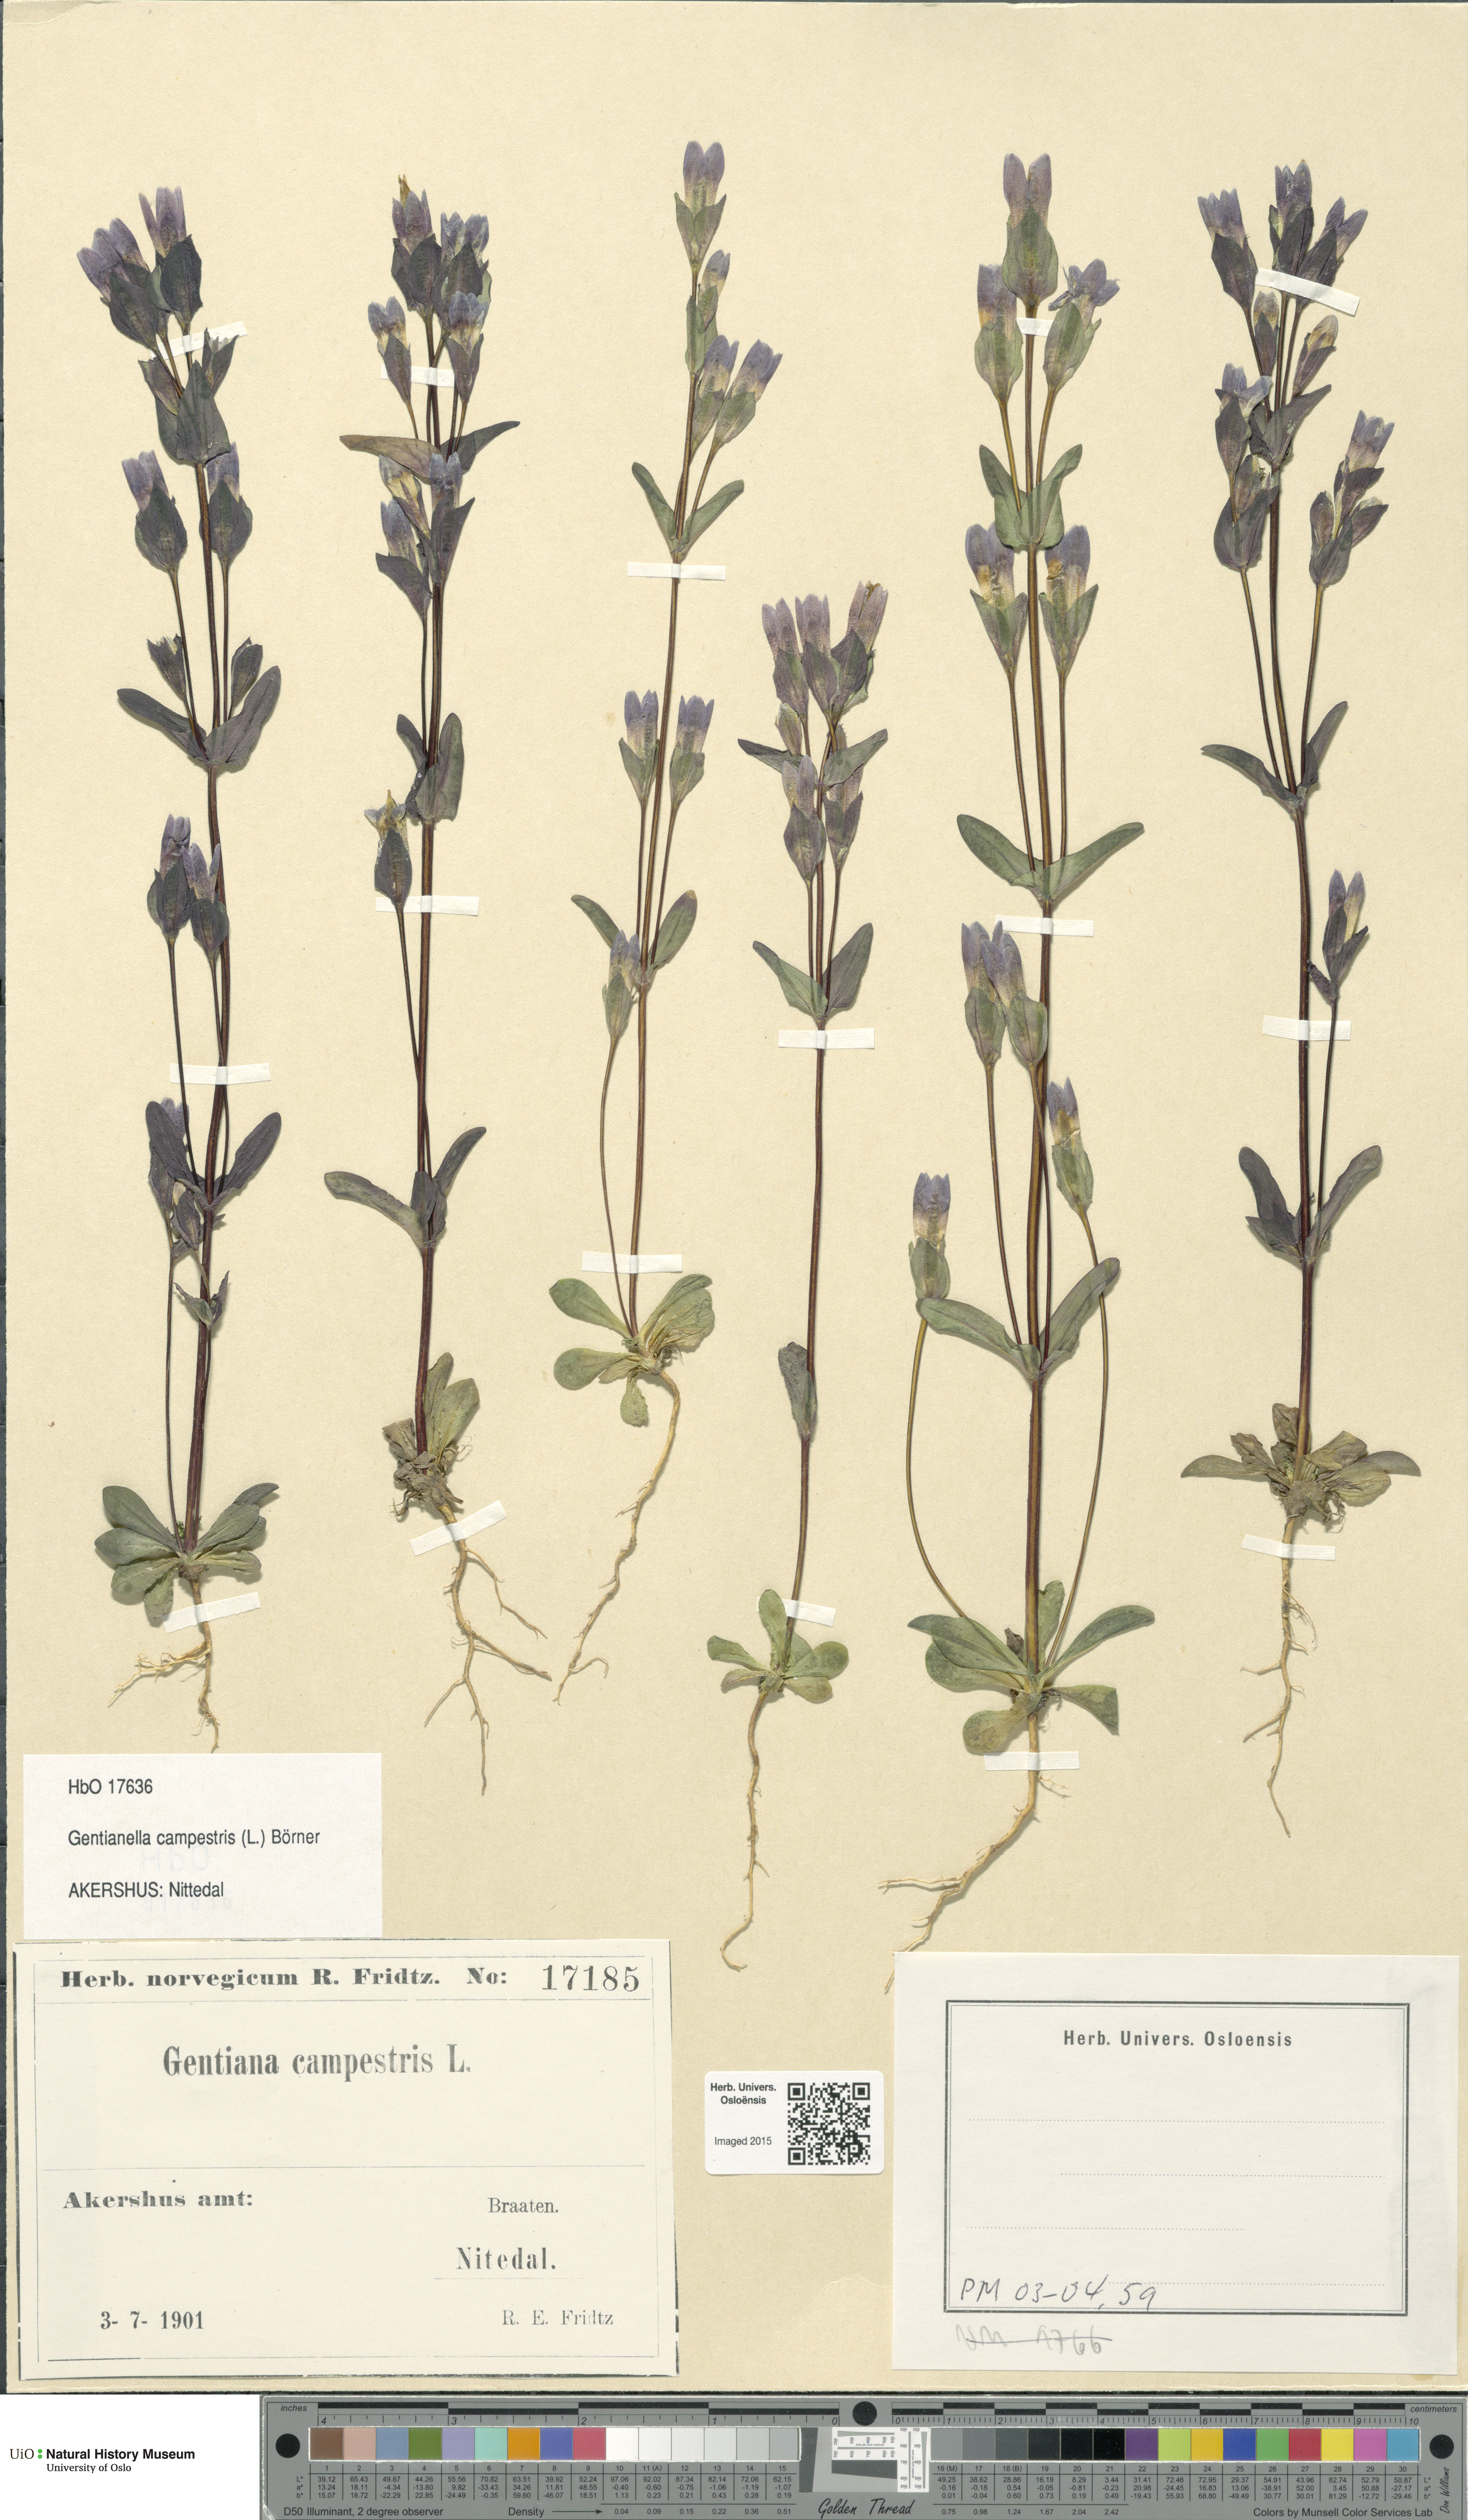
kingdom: Plantae
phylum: Tracheophyta
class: Magnoliopsida
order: Gentianales
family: Gentianaceae
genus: Gentianella
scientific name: Gentianella campestris
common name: Field gentian
